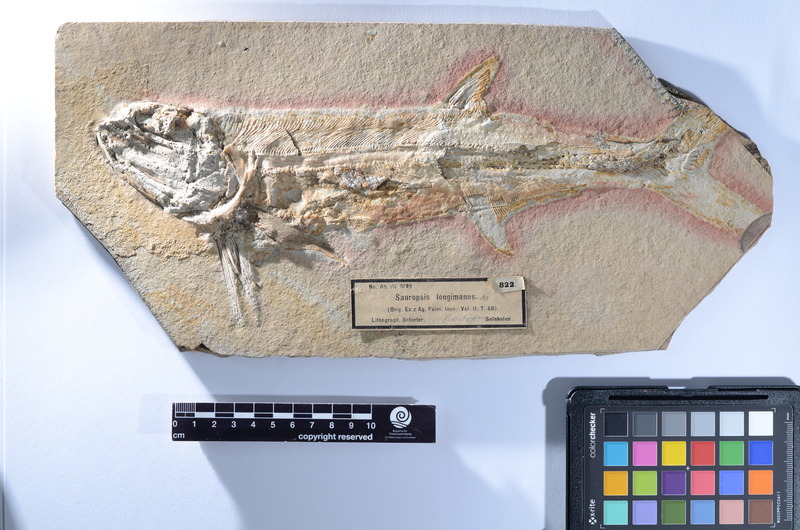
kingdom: Animalia
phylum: Chordata
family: Pachycormidae
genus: Sauropsis
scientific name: Sauropsis longimanus
